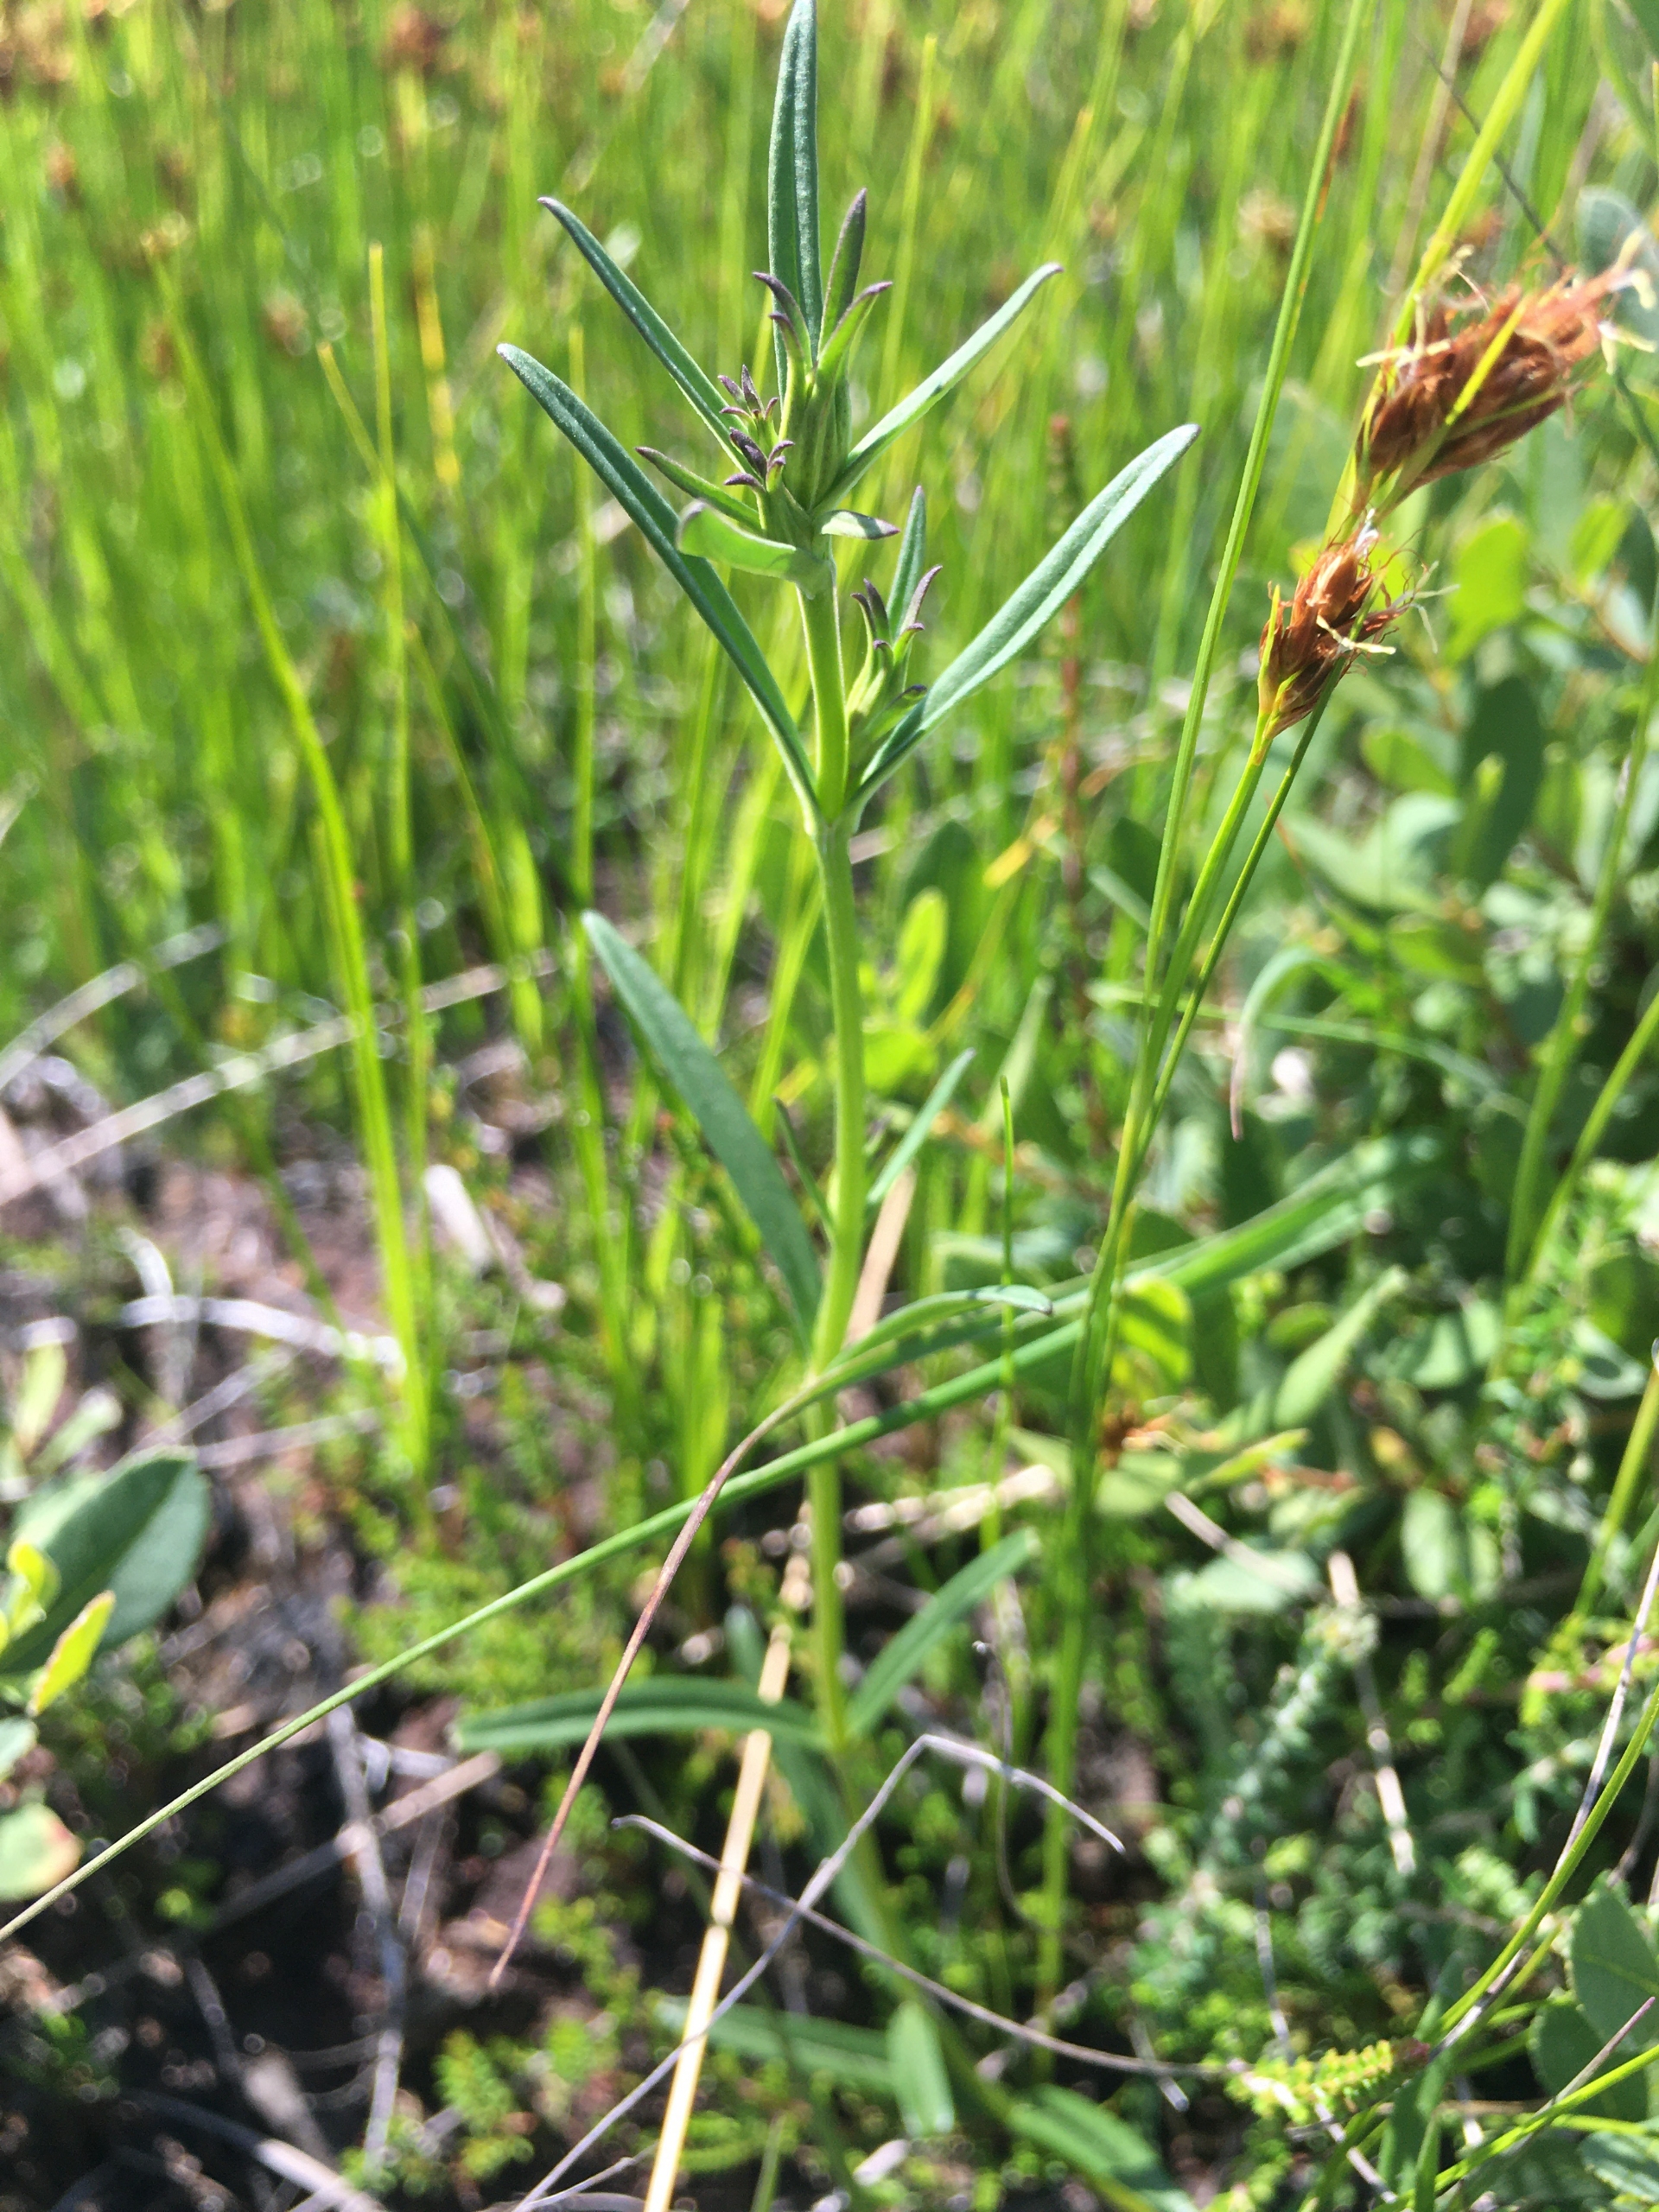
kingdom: Plantae
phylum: Tracheophyta
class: Magnoliopsida
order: Gentianales
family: Gentianaceae
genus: Gentiana
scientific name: Gentiana pneumonanthe
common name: Klokke-ensian
